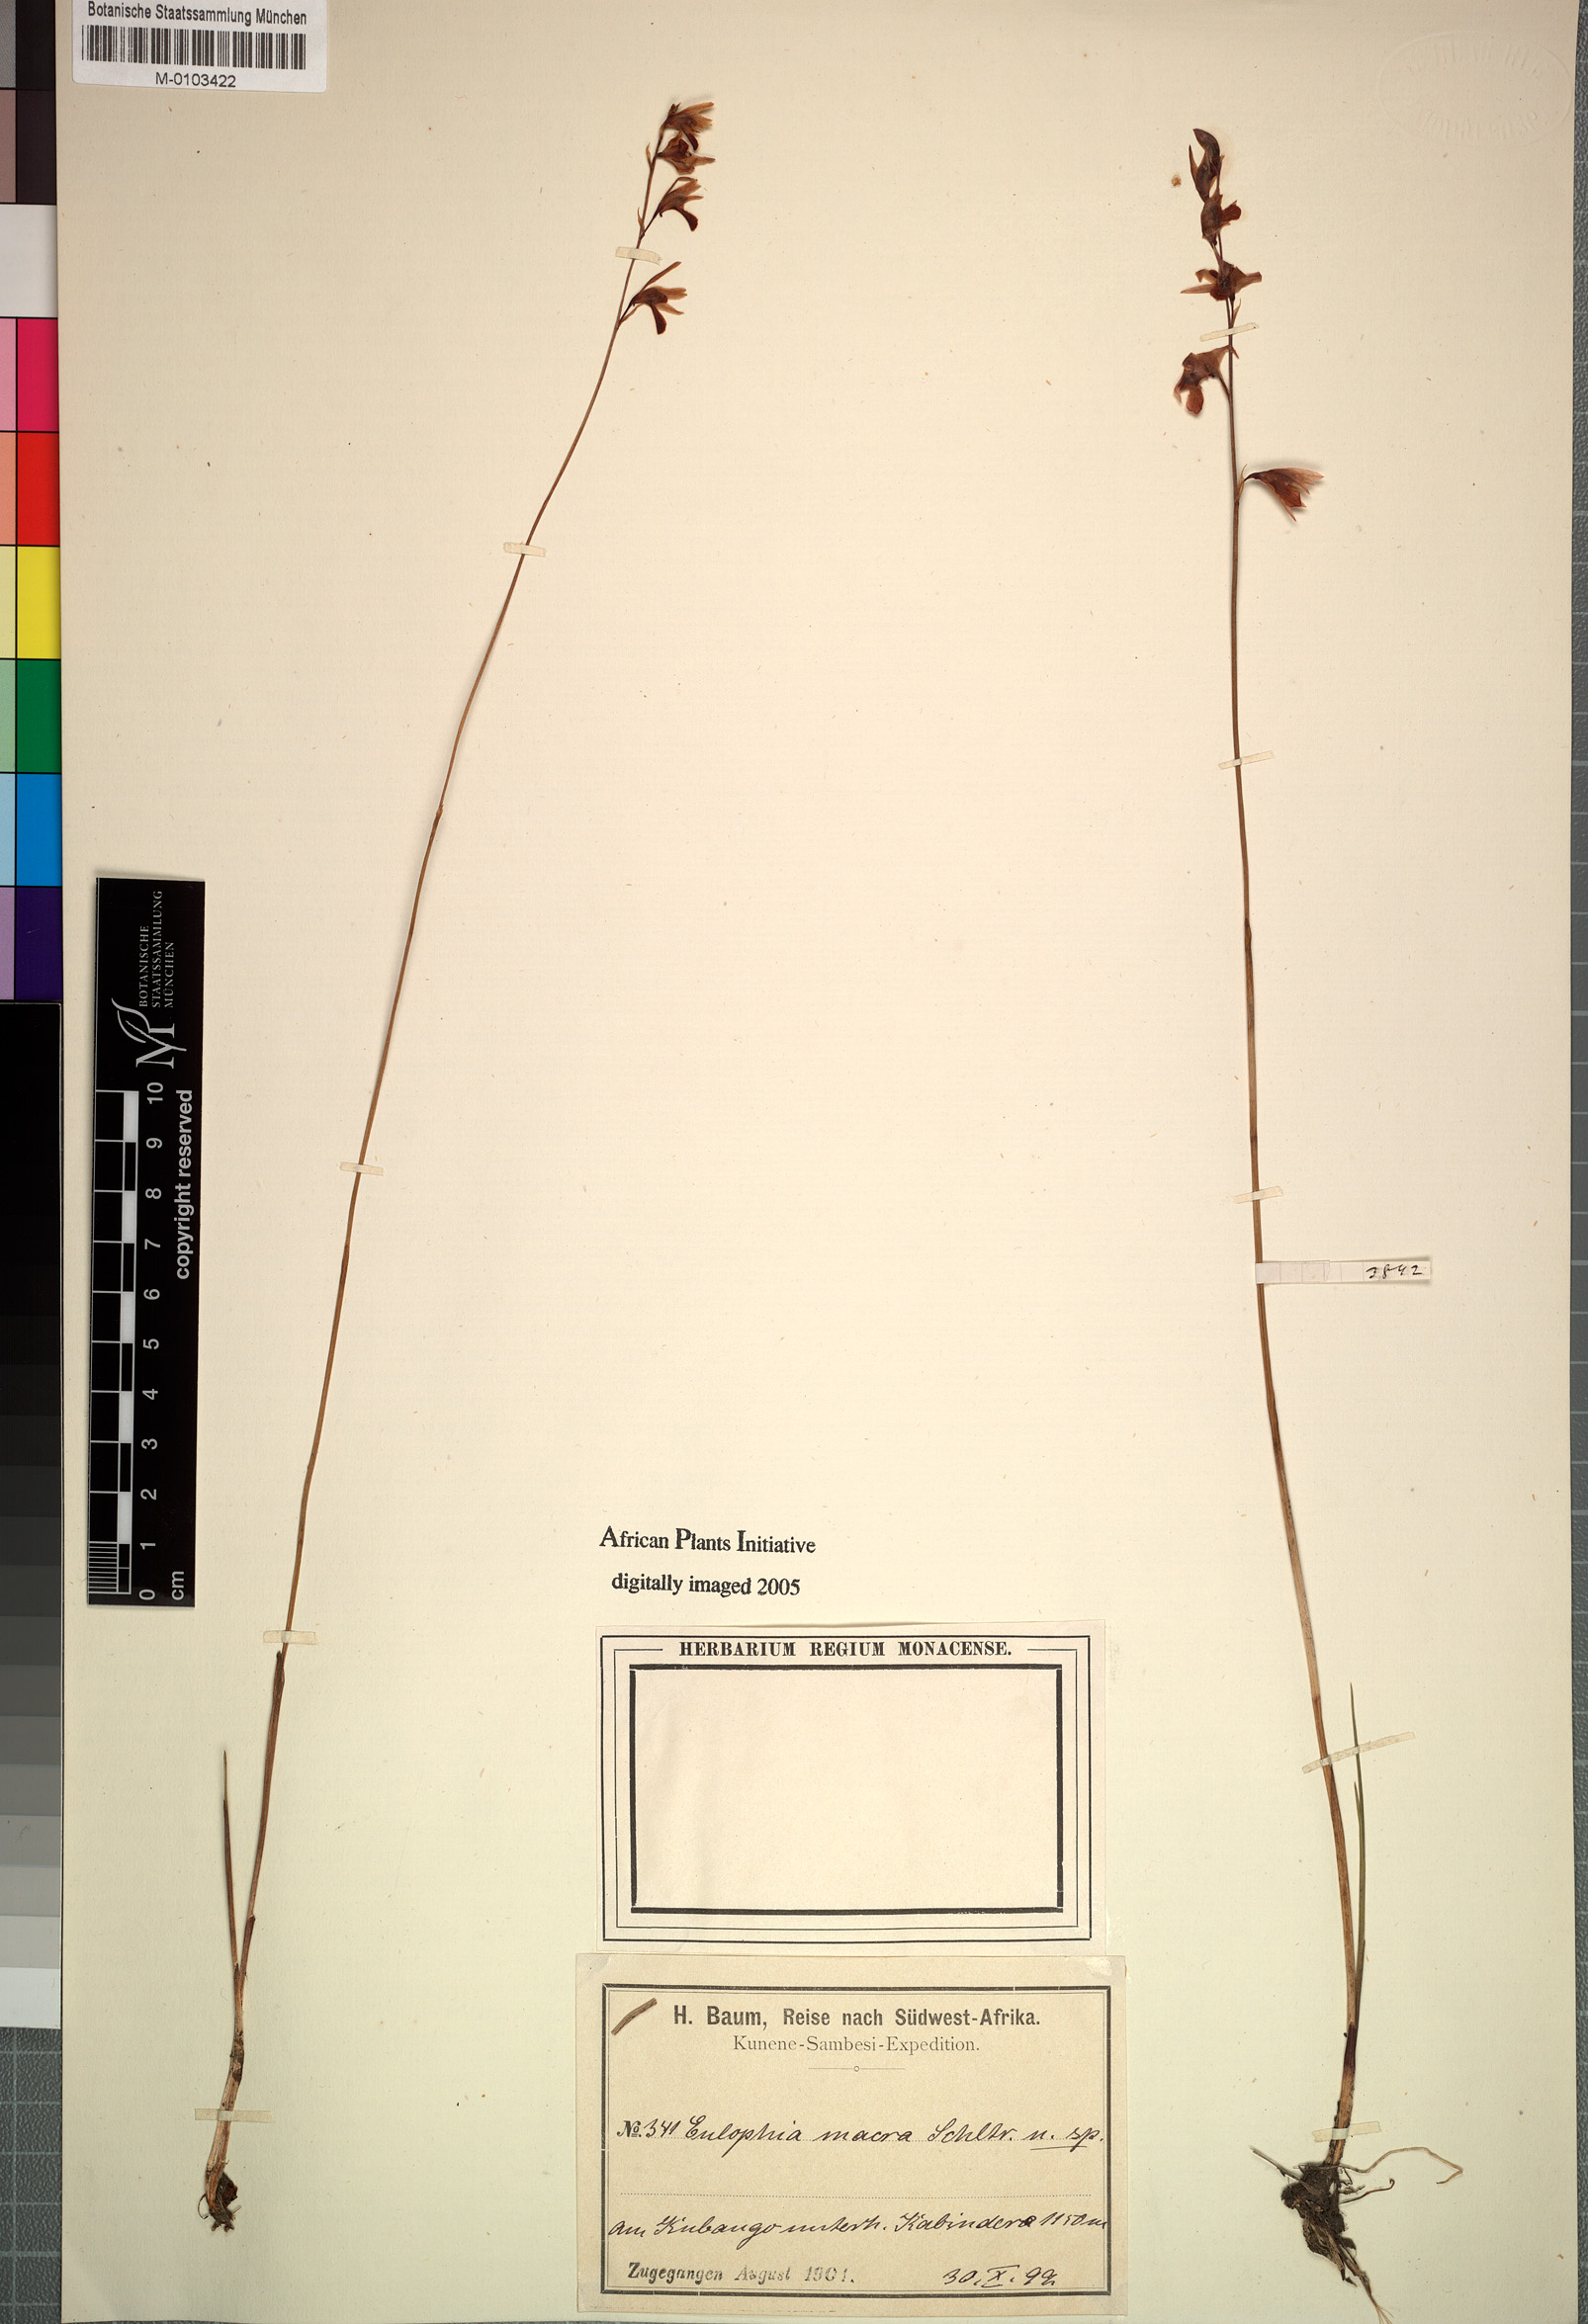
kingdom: Plantae
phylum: Tracheophyta
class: Liliopsida
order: Asparagales
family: Orchidaceae
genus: Eulophia
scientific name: Eulophia trilamellata
